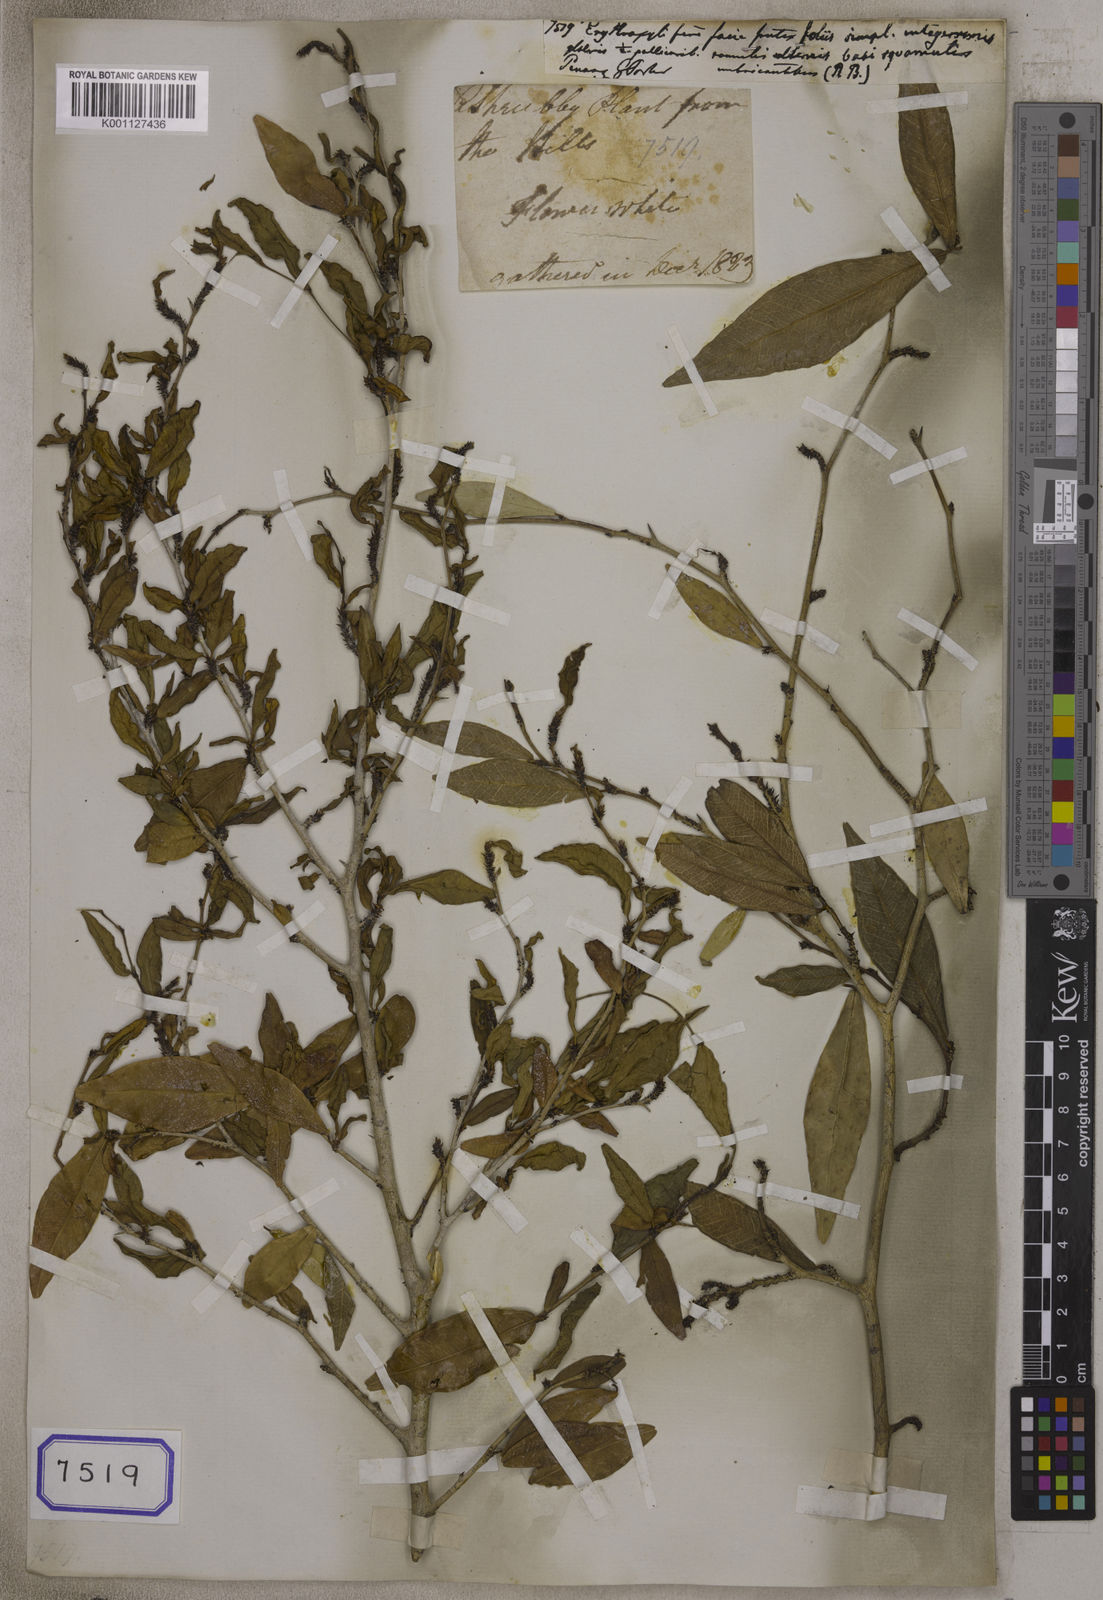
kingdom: Plantae
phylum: Tracheophyta
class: Magnoliopsida
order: Malpighiales
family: Erythroxylaceae
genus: Erythroxylum
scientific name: Erythroxylum
